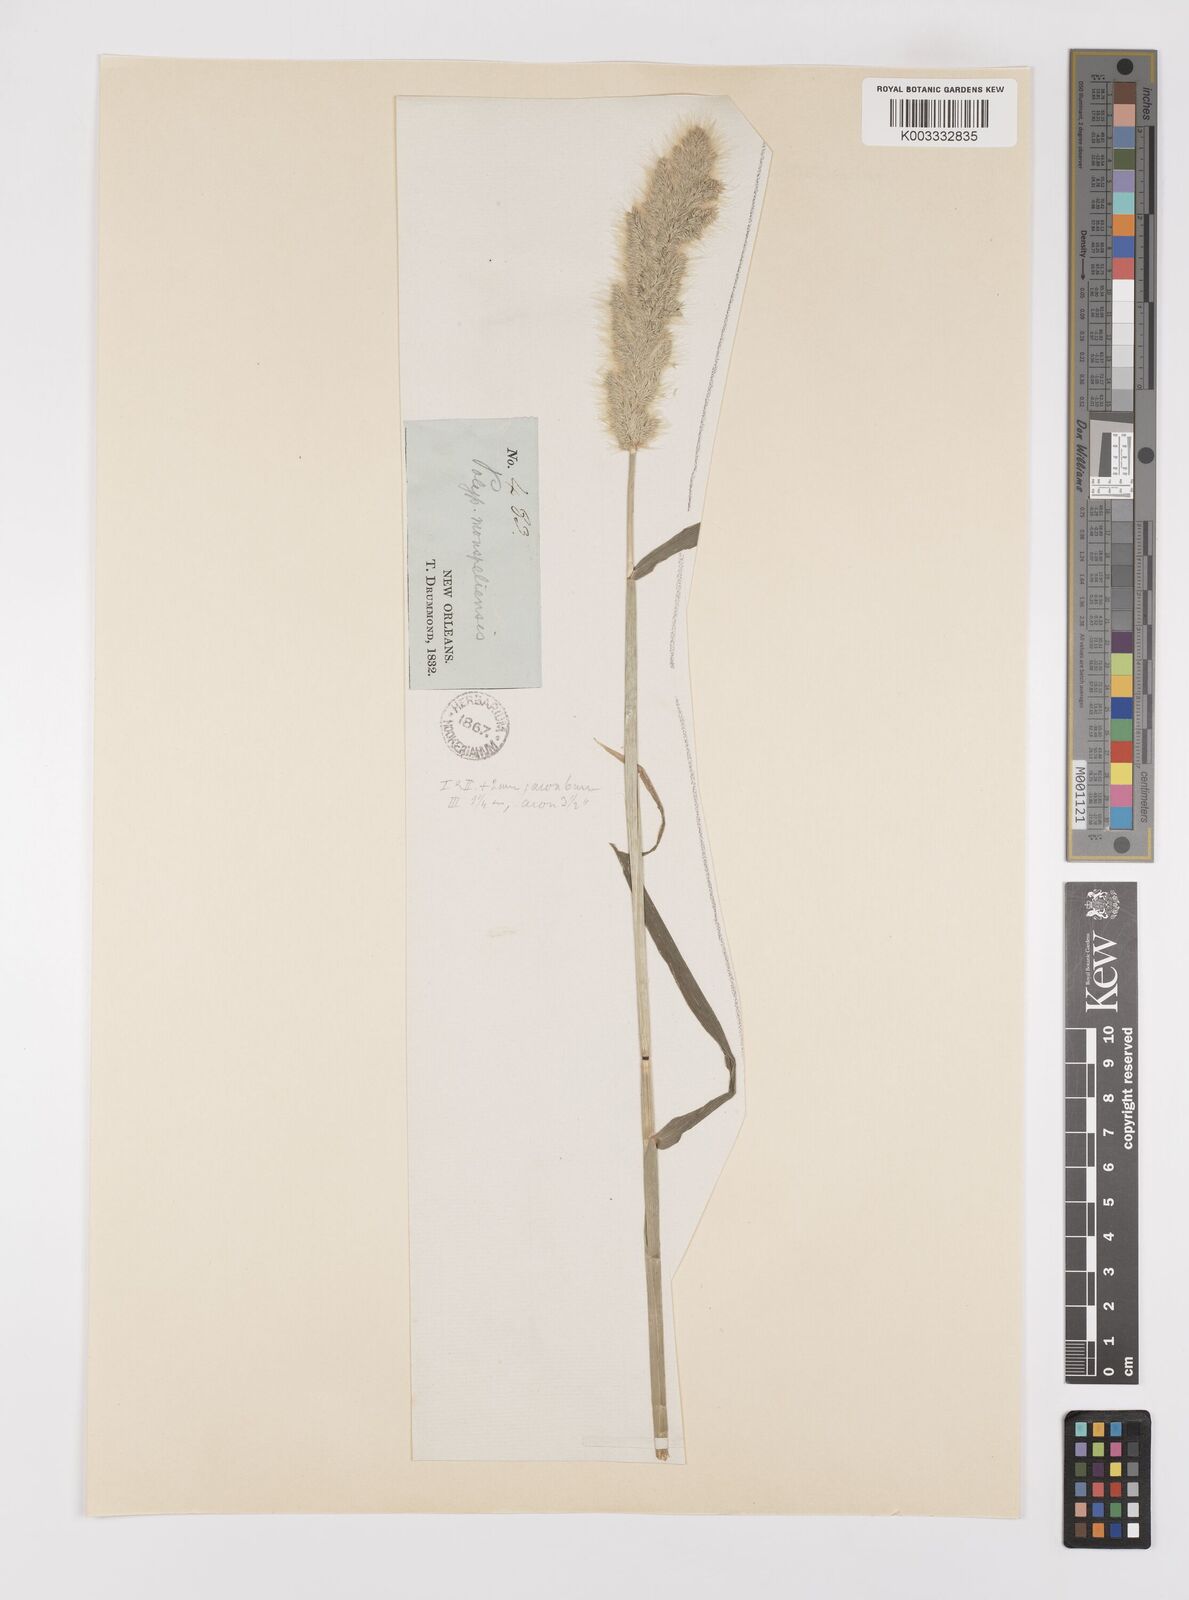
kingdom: Plantae
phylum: Tracheophyta
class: Liliopsida
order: Poales
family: Poaceae
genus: Polypogon
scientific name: Polypogon monspeliensis
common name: Annual rabbitsfoot grass
